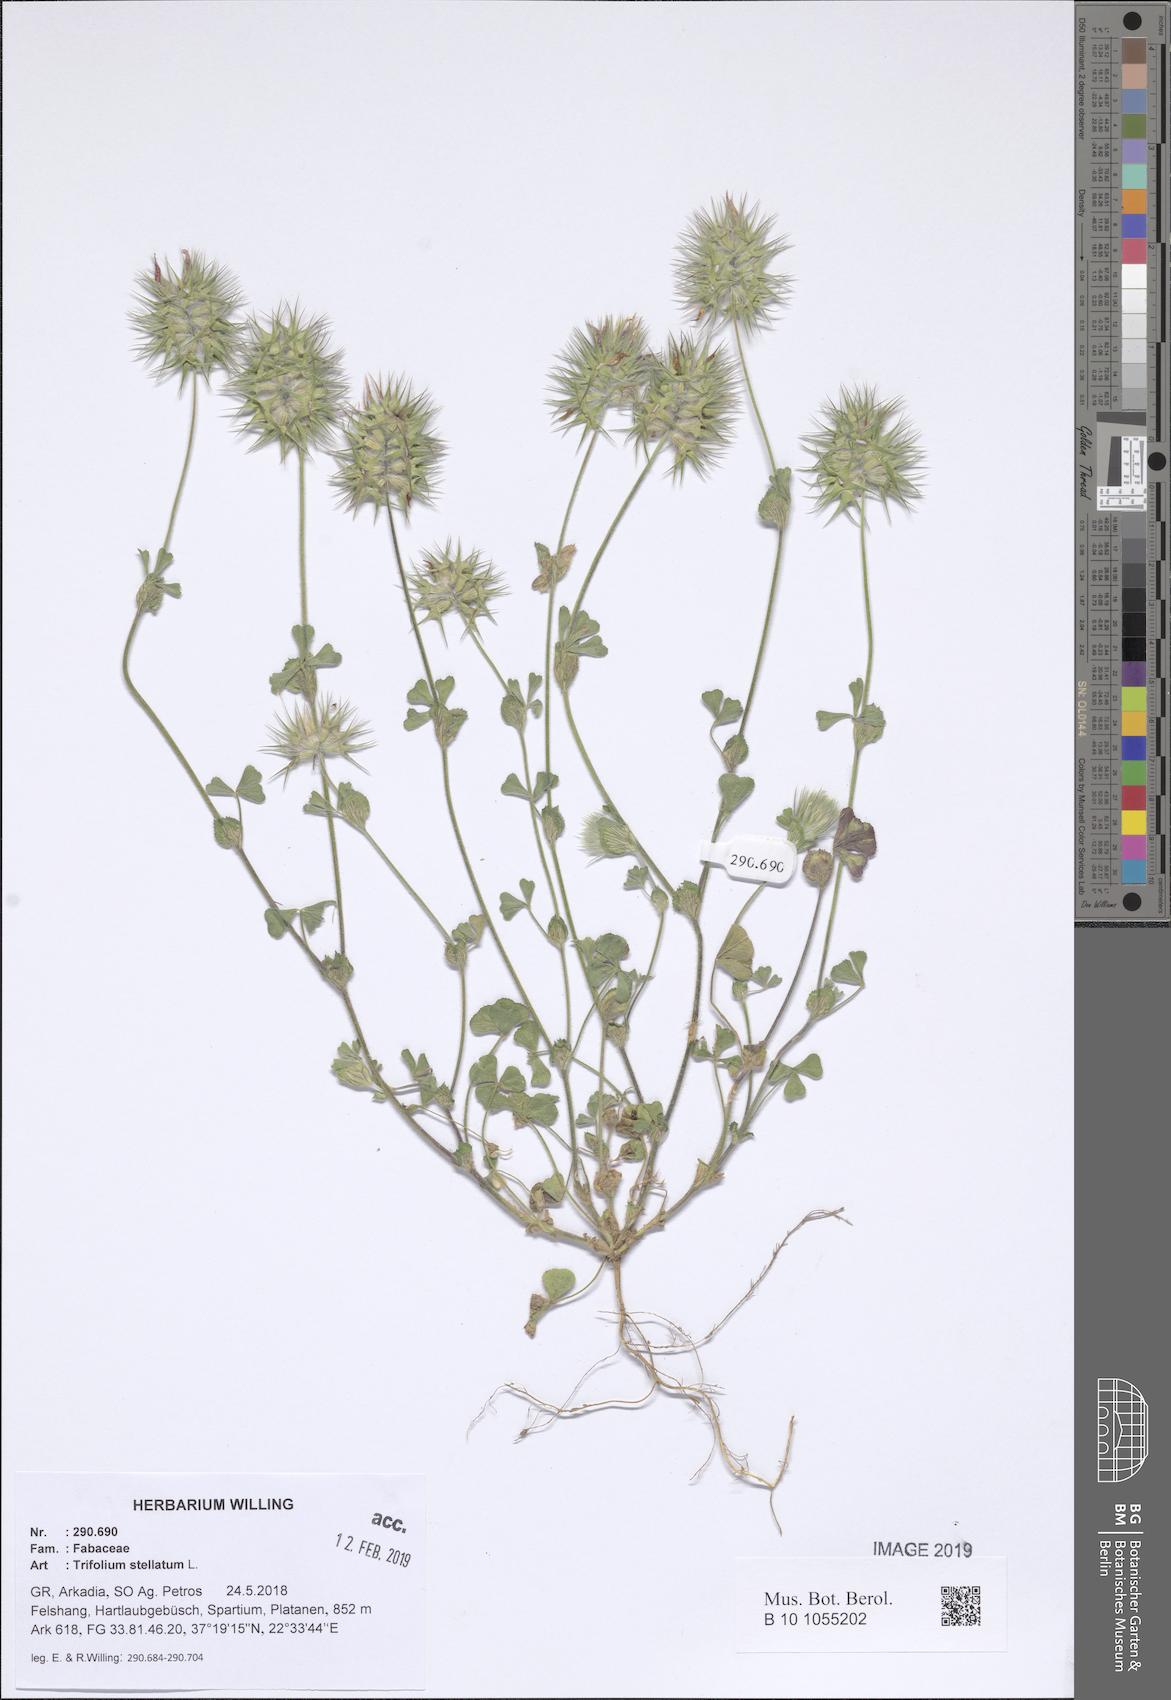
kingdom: Plantae
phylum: Tracheophyta
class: Magnoliopsida
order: Fabales
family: Fabaceae
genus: Trifolium
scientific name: Trifolium stellatum
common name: Starry clover
